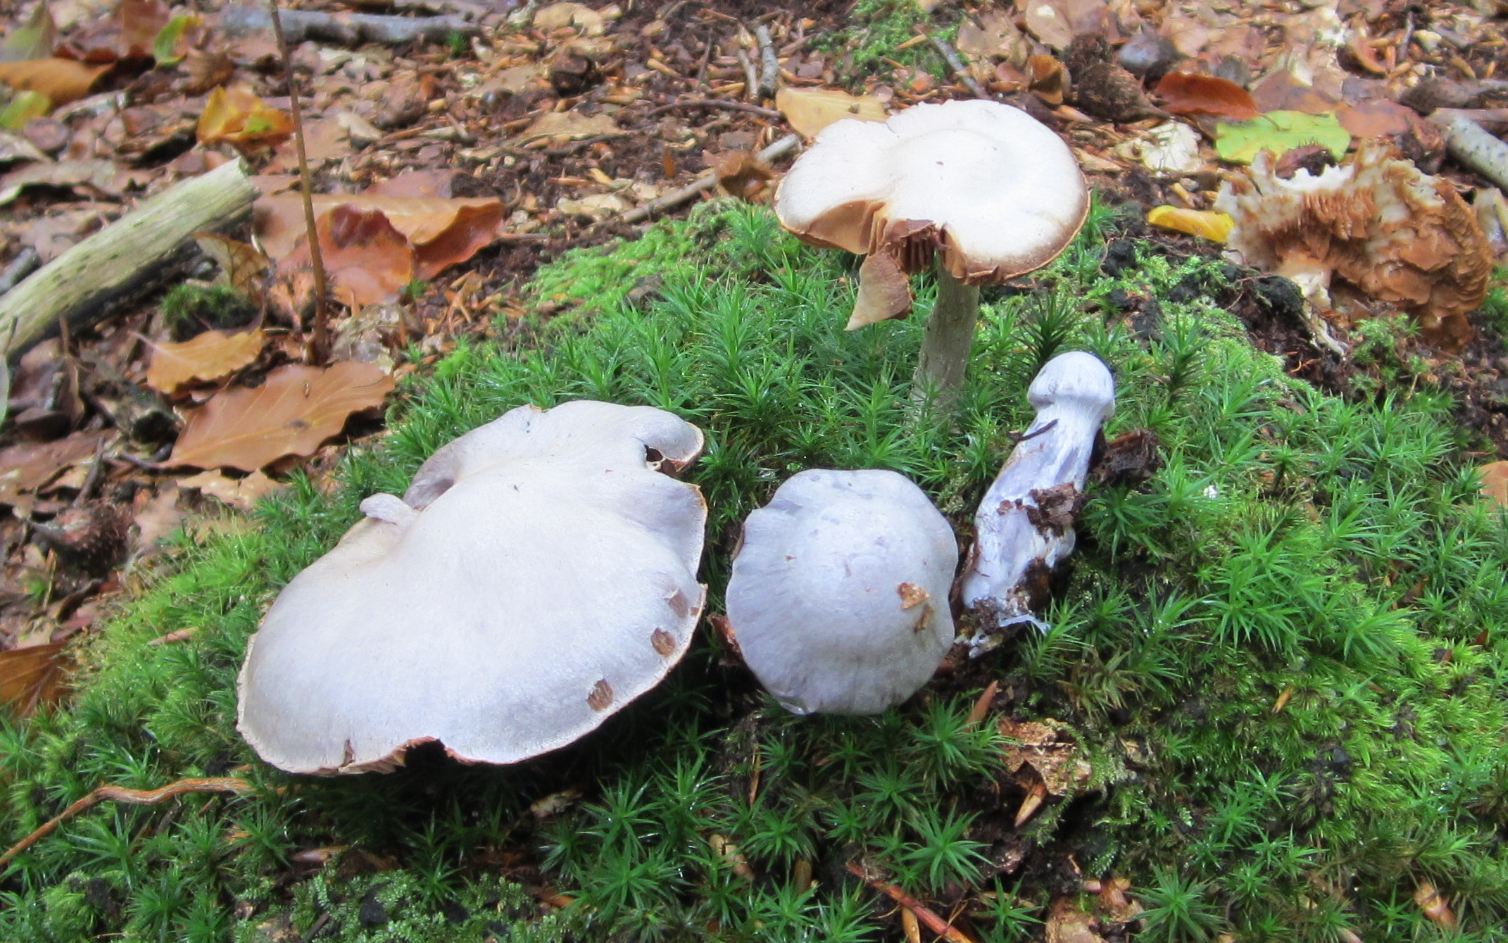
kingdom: Fungi
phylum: Basidiomycota
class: Agaricomycetes
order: Agaricales
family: Cortinariaceae
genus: Cortinarius
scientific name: Cortinarius alboviolaceus
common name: lysviolet slørhat
